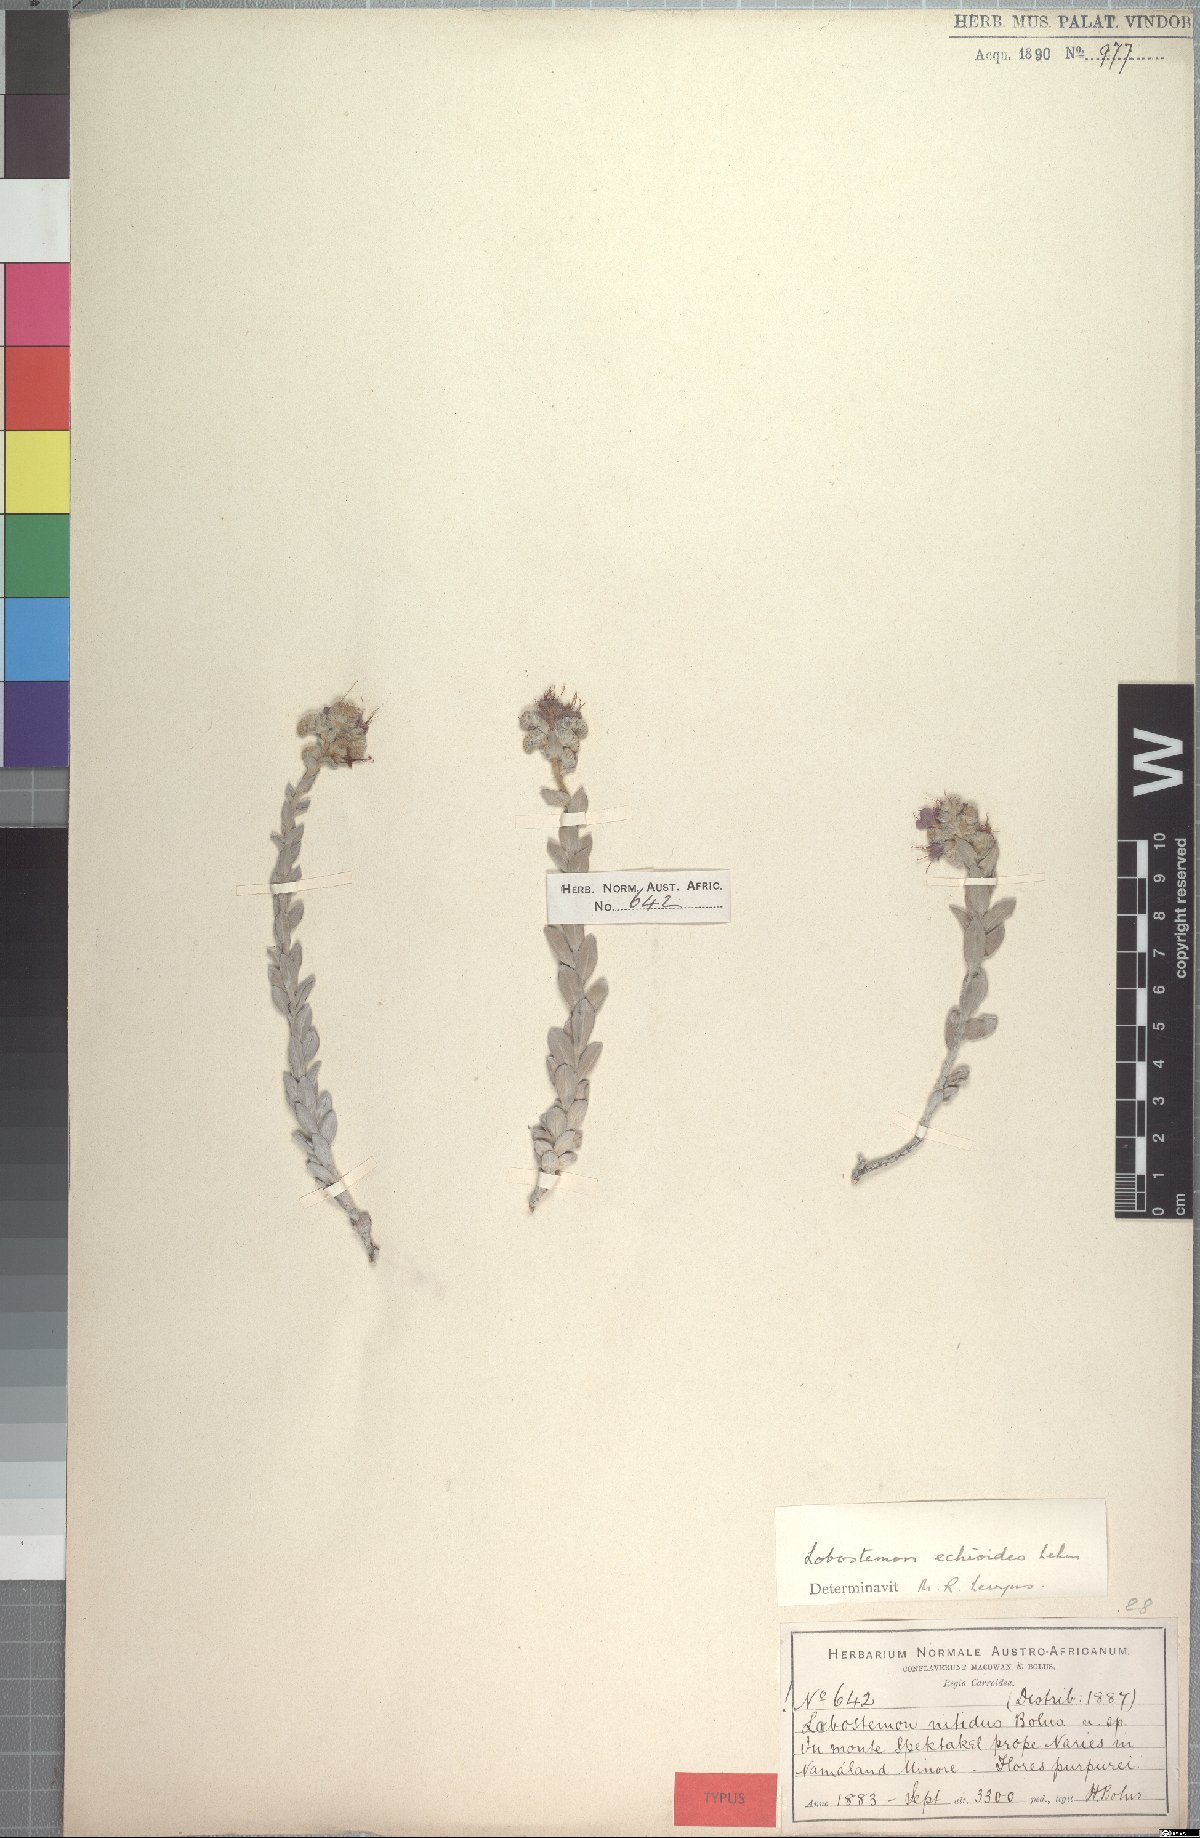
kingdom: Plantae
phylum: Tracheophyta
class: Magnoliopsida
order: Boraginales
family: Boraginaceae
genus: Lobostemon
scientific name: Lobostemon echioides
